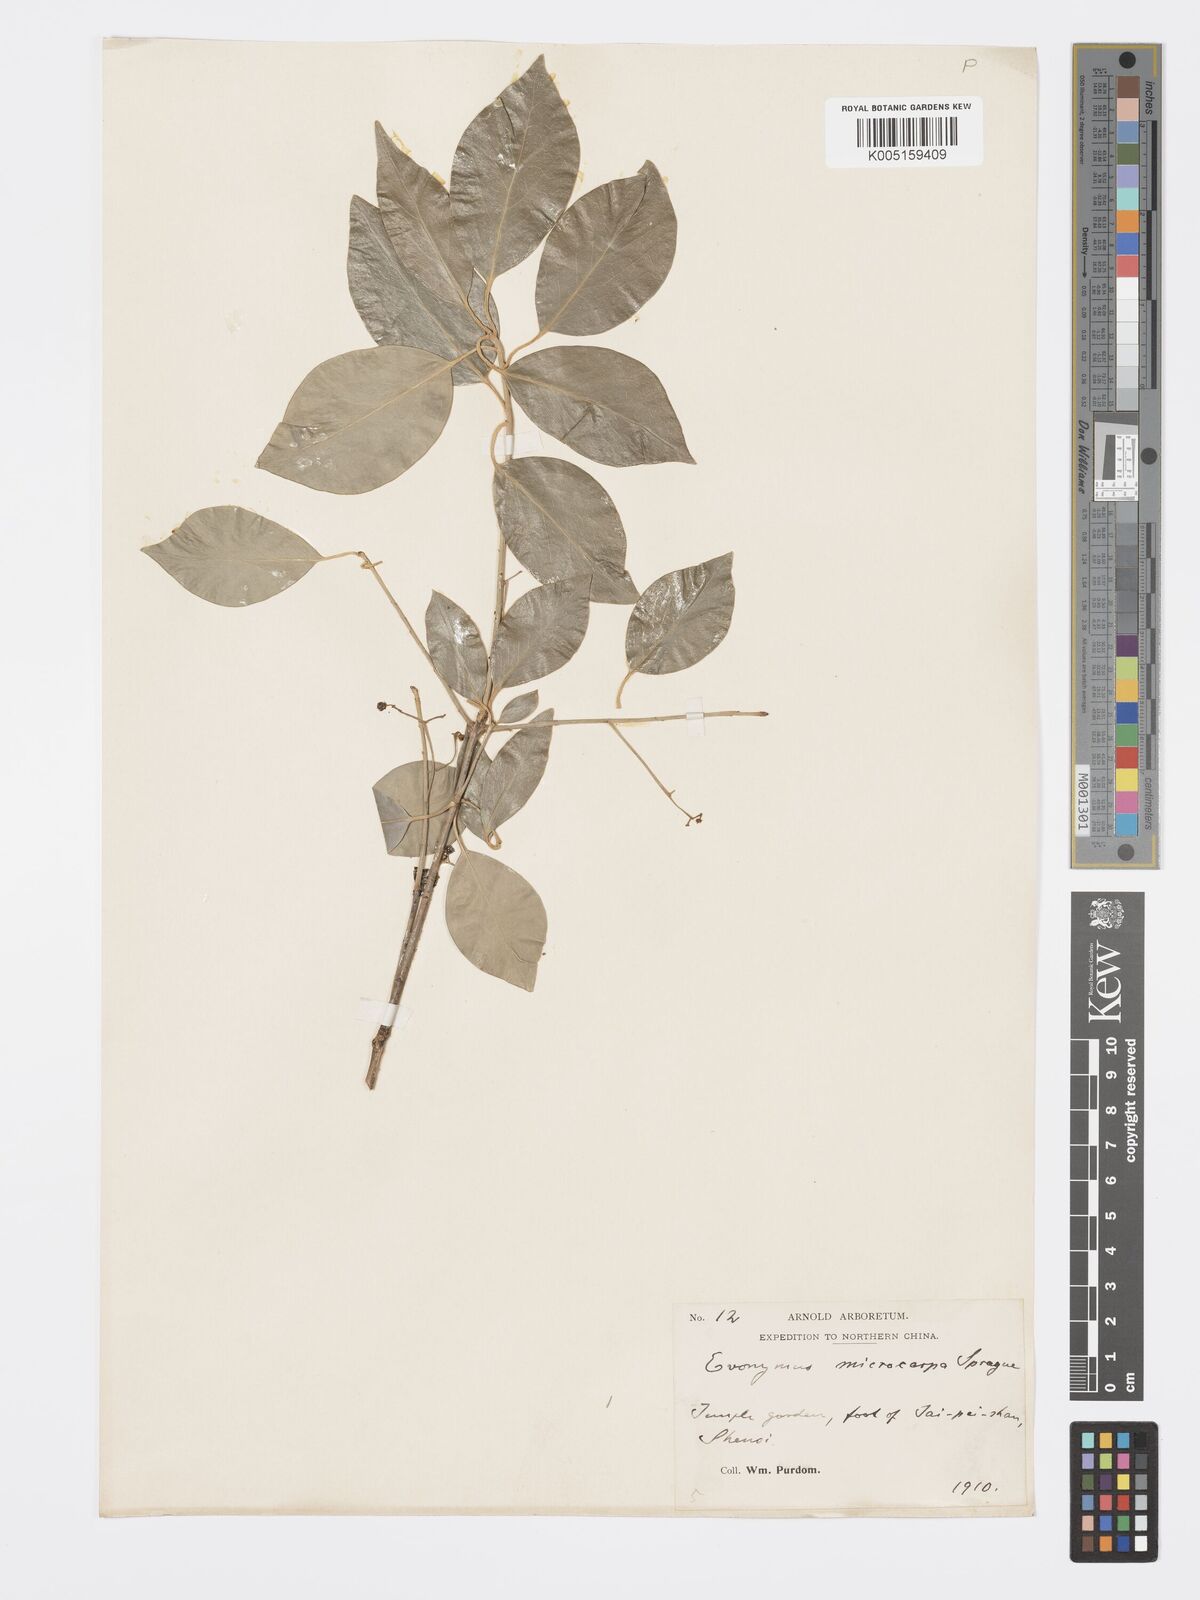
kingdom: Plantae
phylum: Tracheophyta
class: Magnoliopsida
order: Celastrales
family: Celastraceae
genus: Euonymus
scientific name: Euonymus
